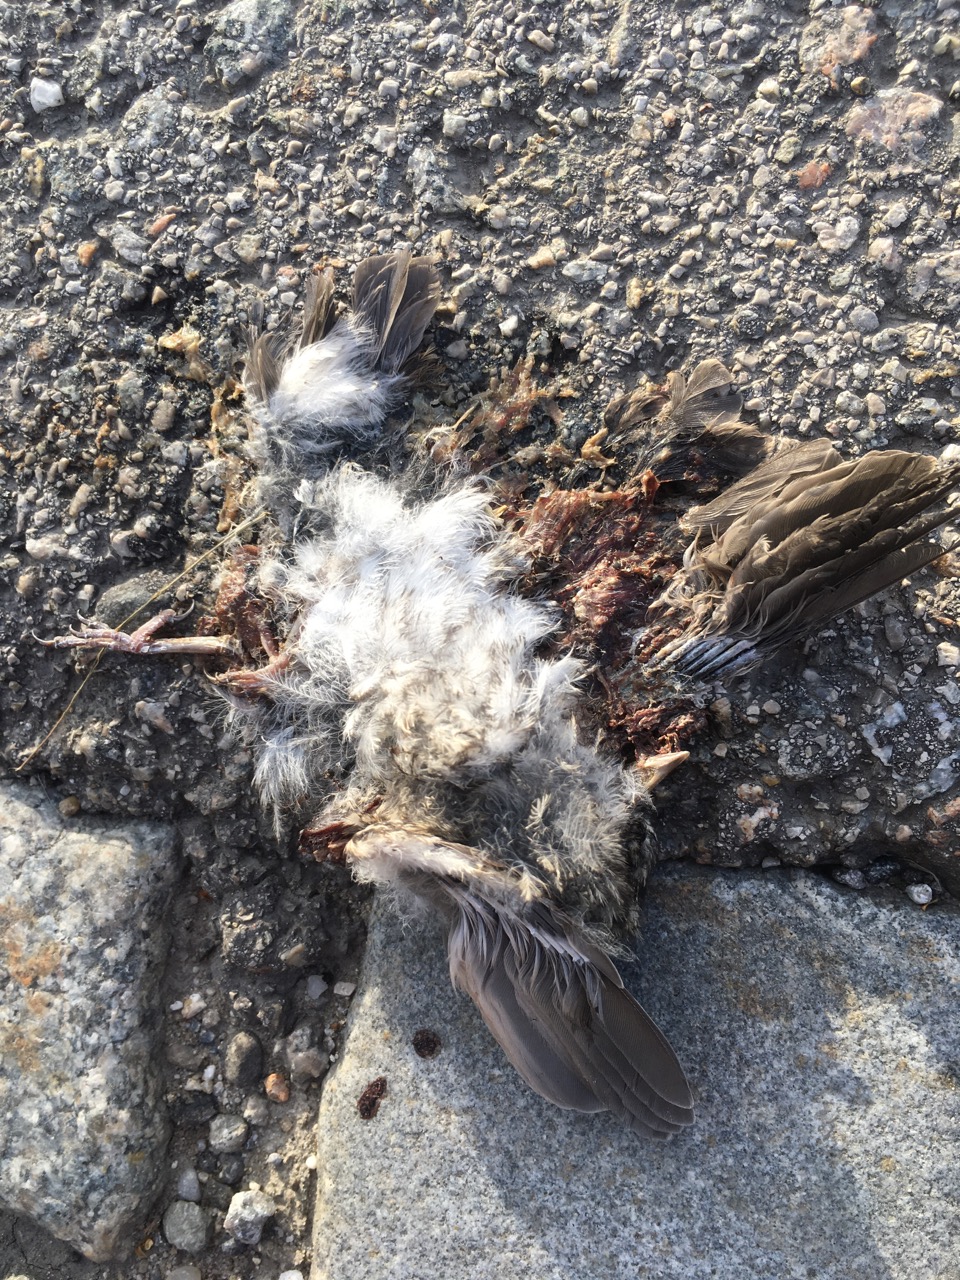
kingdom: Animalia
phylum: Chordata
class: Aves
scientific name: Aves
